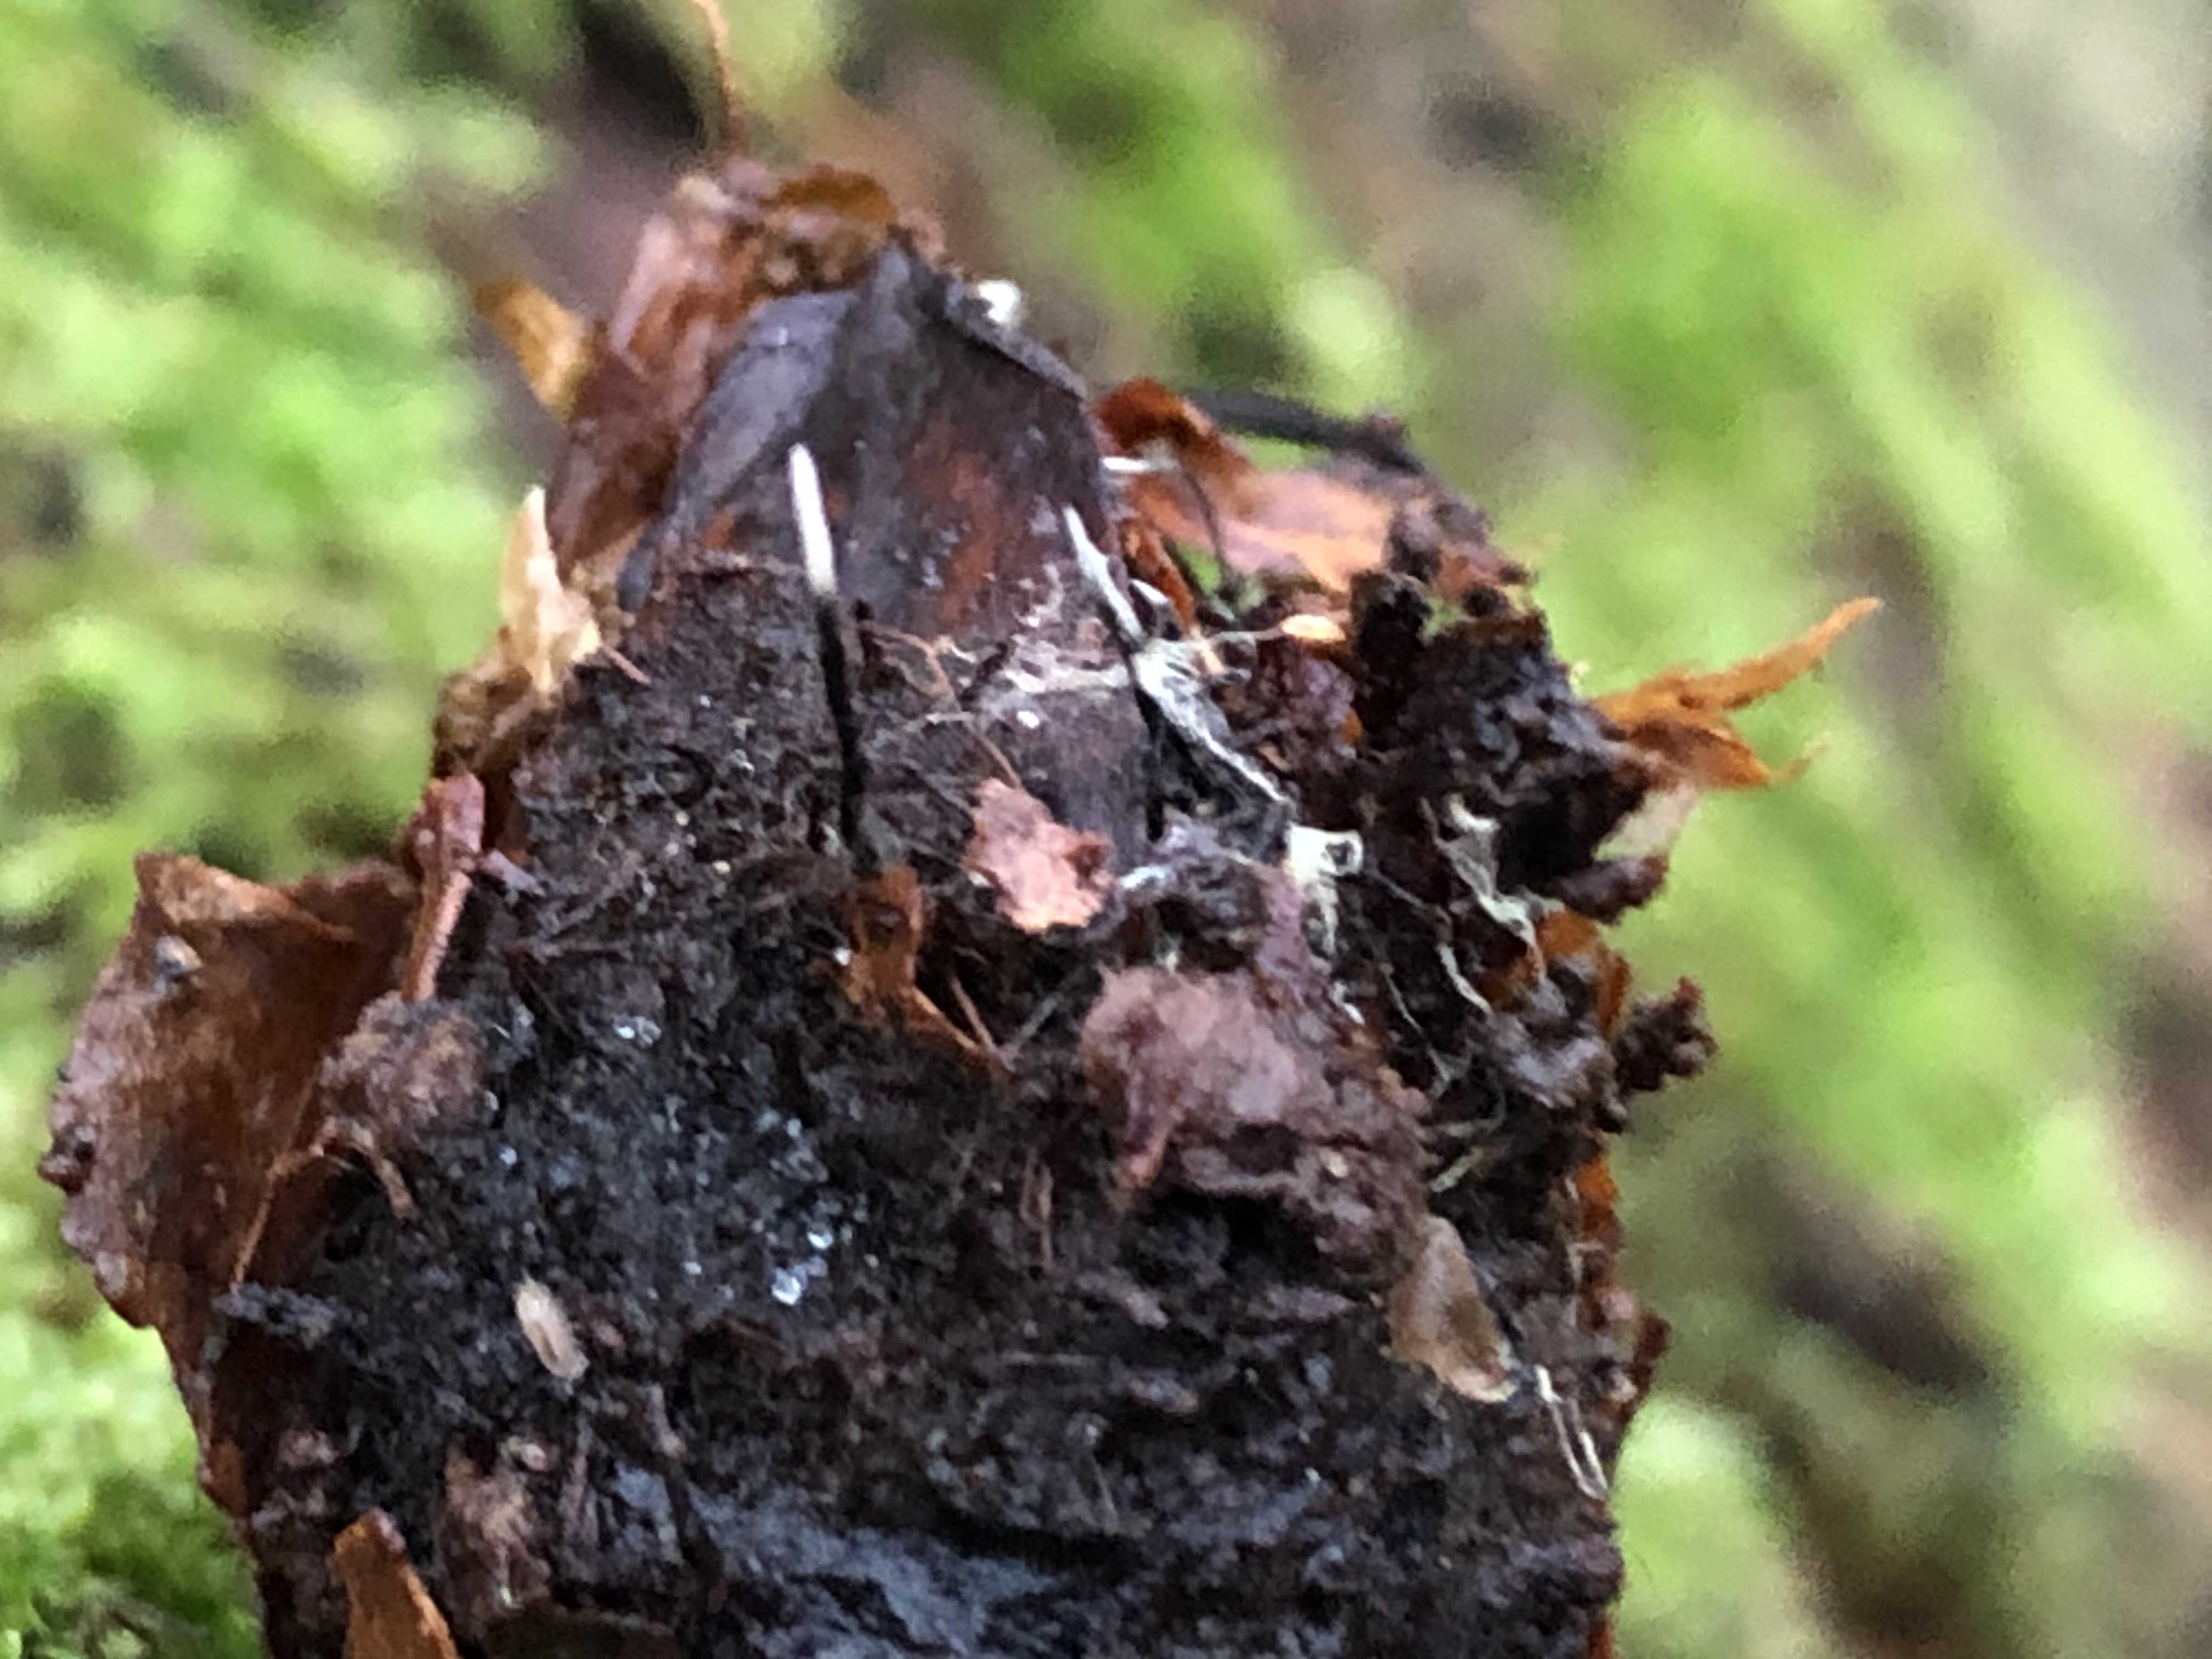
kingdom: Fungi
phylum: Ascomycota
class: Sordariomycetes
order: Xylariales
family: Xylariaceae
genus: Xylaria
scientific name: Xylaria carpophila
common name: bogskål-stødsvamp
